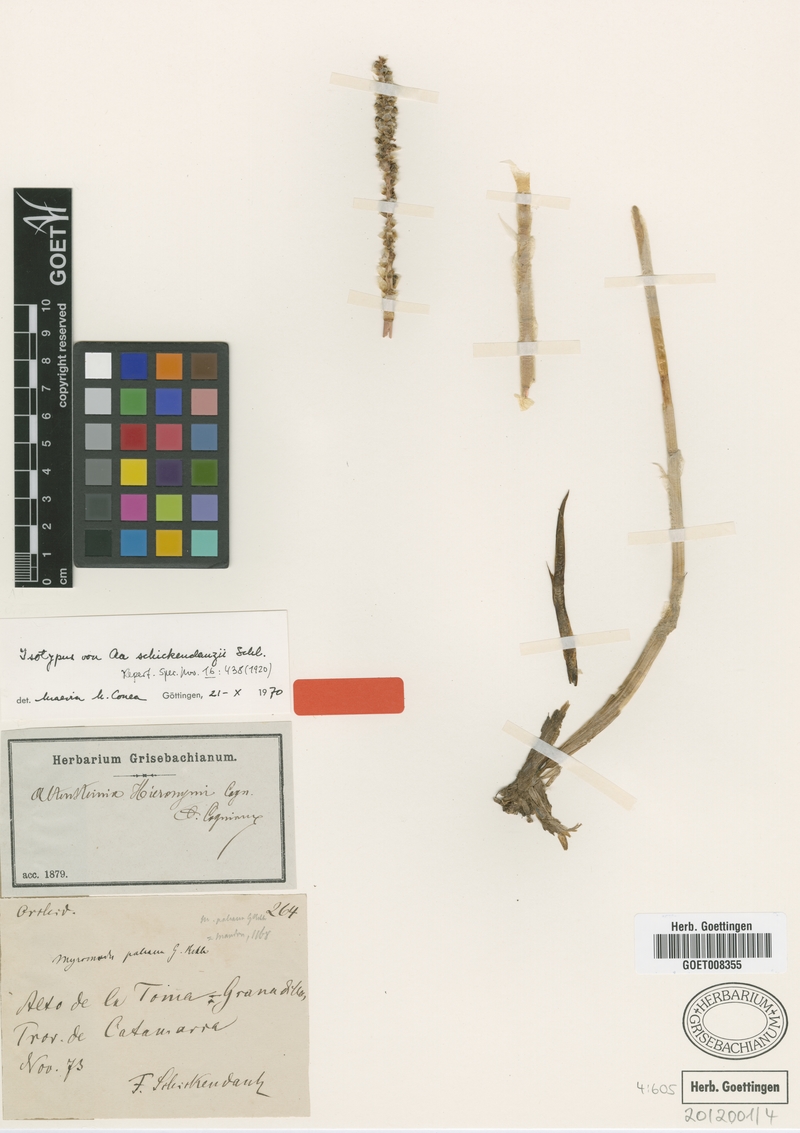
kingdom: Plantae
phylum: Tracheophyta
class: Liliopsida
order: Asparagales
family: Orchidaceae
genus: Aa
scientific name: Aa schickendanzii
